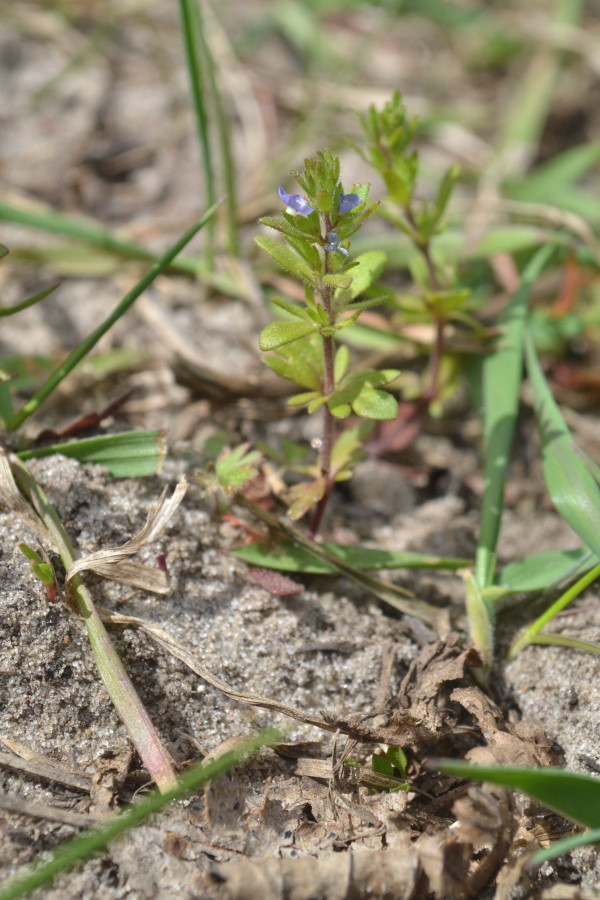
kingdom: Plantae
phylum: Tracheophyta
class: Magnoliopsida
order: Lamiales
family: Plantaginaceae
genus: Veronica
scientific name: Veronica verna
